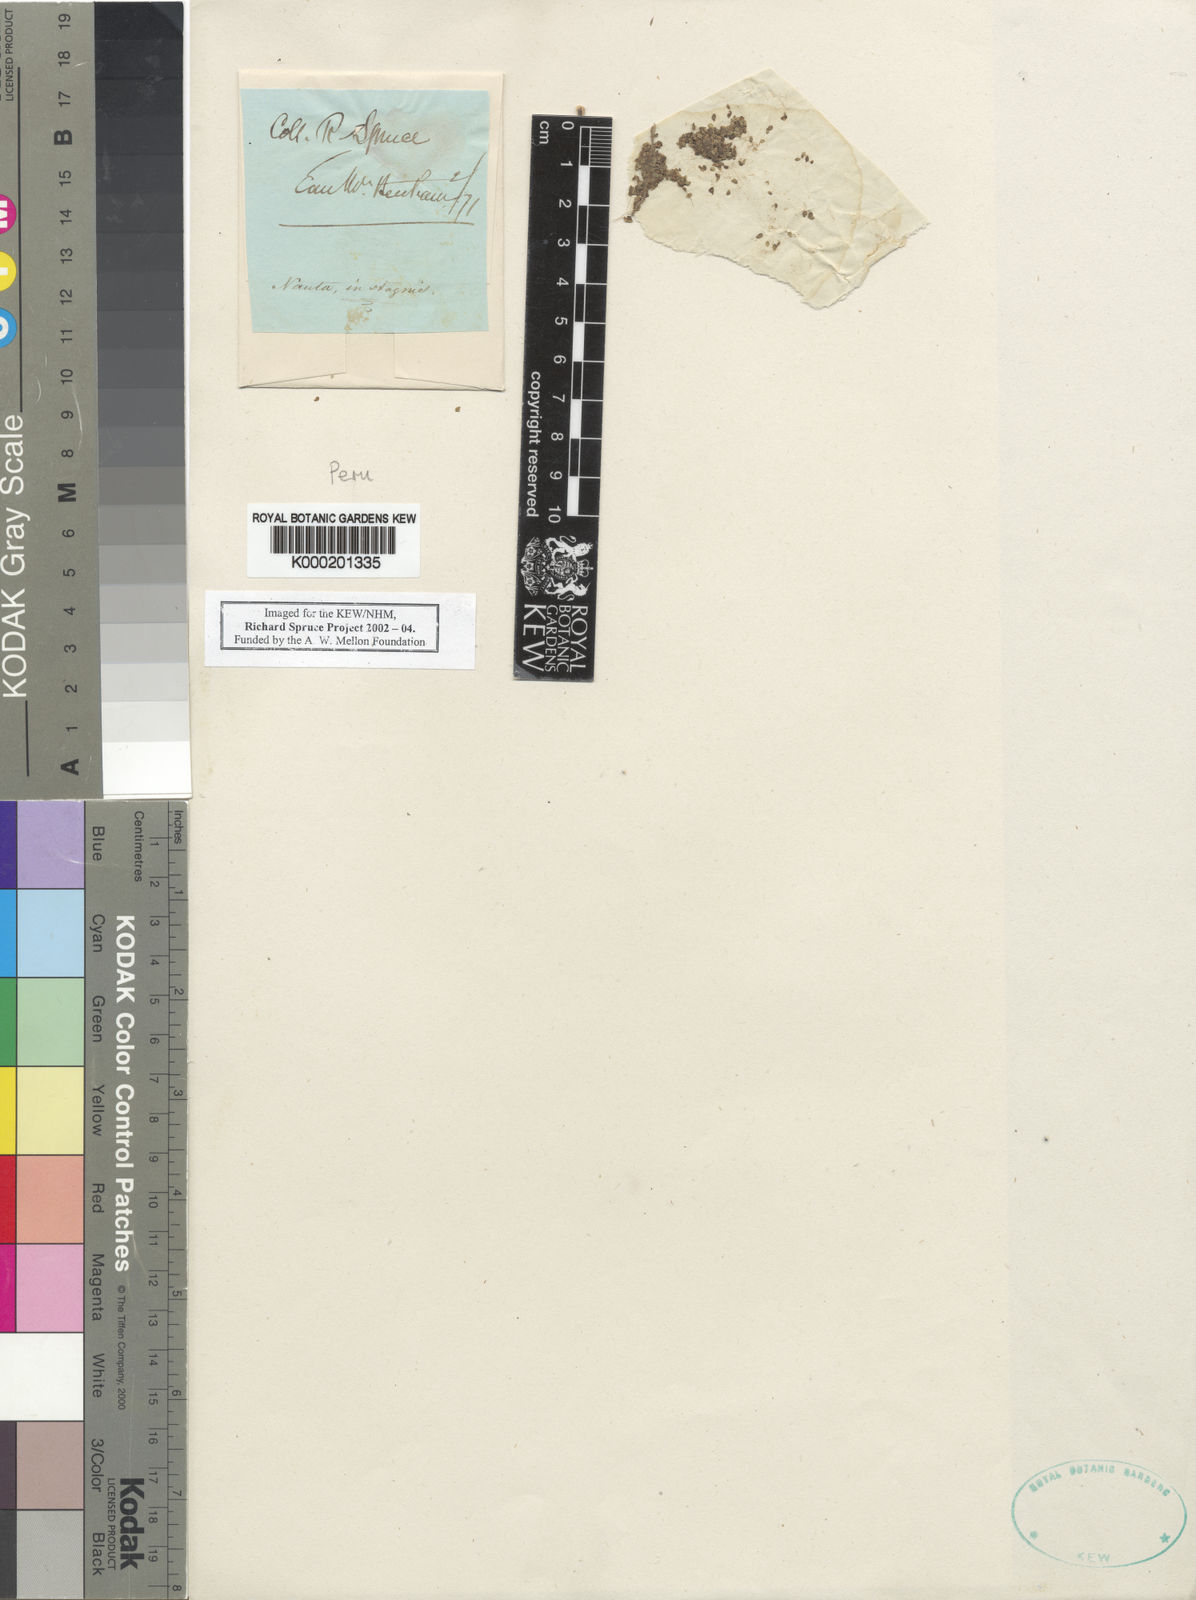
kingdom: Plantae
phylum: Tracheophyta
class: Liliopsida
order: Alismatales
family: Araceae
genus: Lemna
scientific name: Lemna
